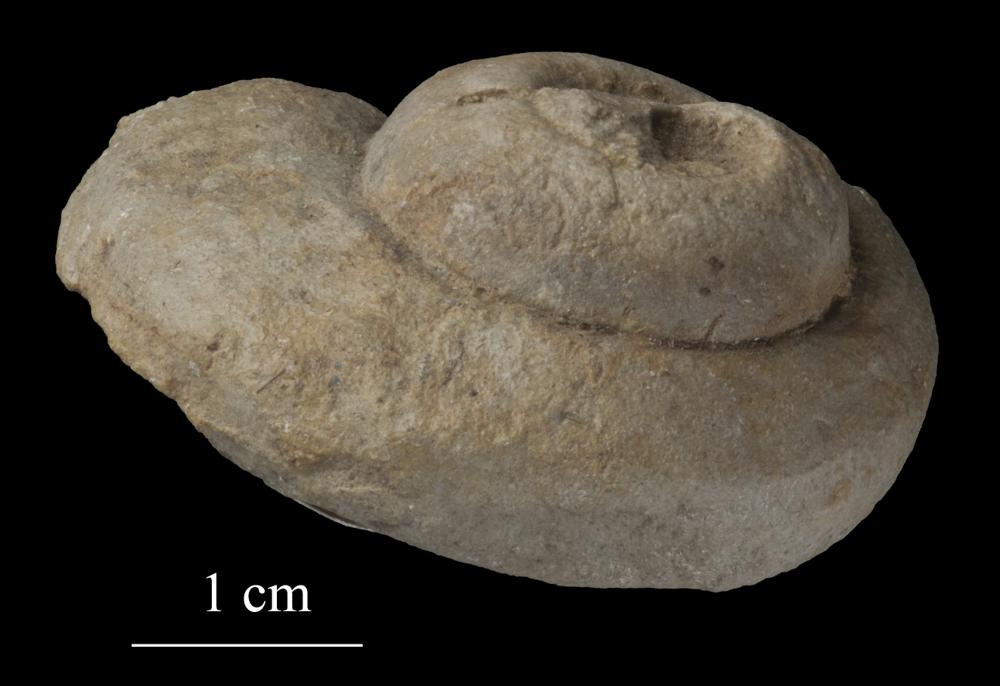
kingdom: Animalia
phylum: Mollusca
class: Gastropoda
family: Euomphalidae
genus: Euomphalopterus
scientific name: Euomphalopterus
